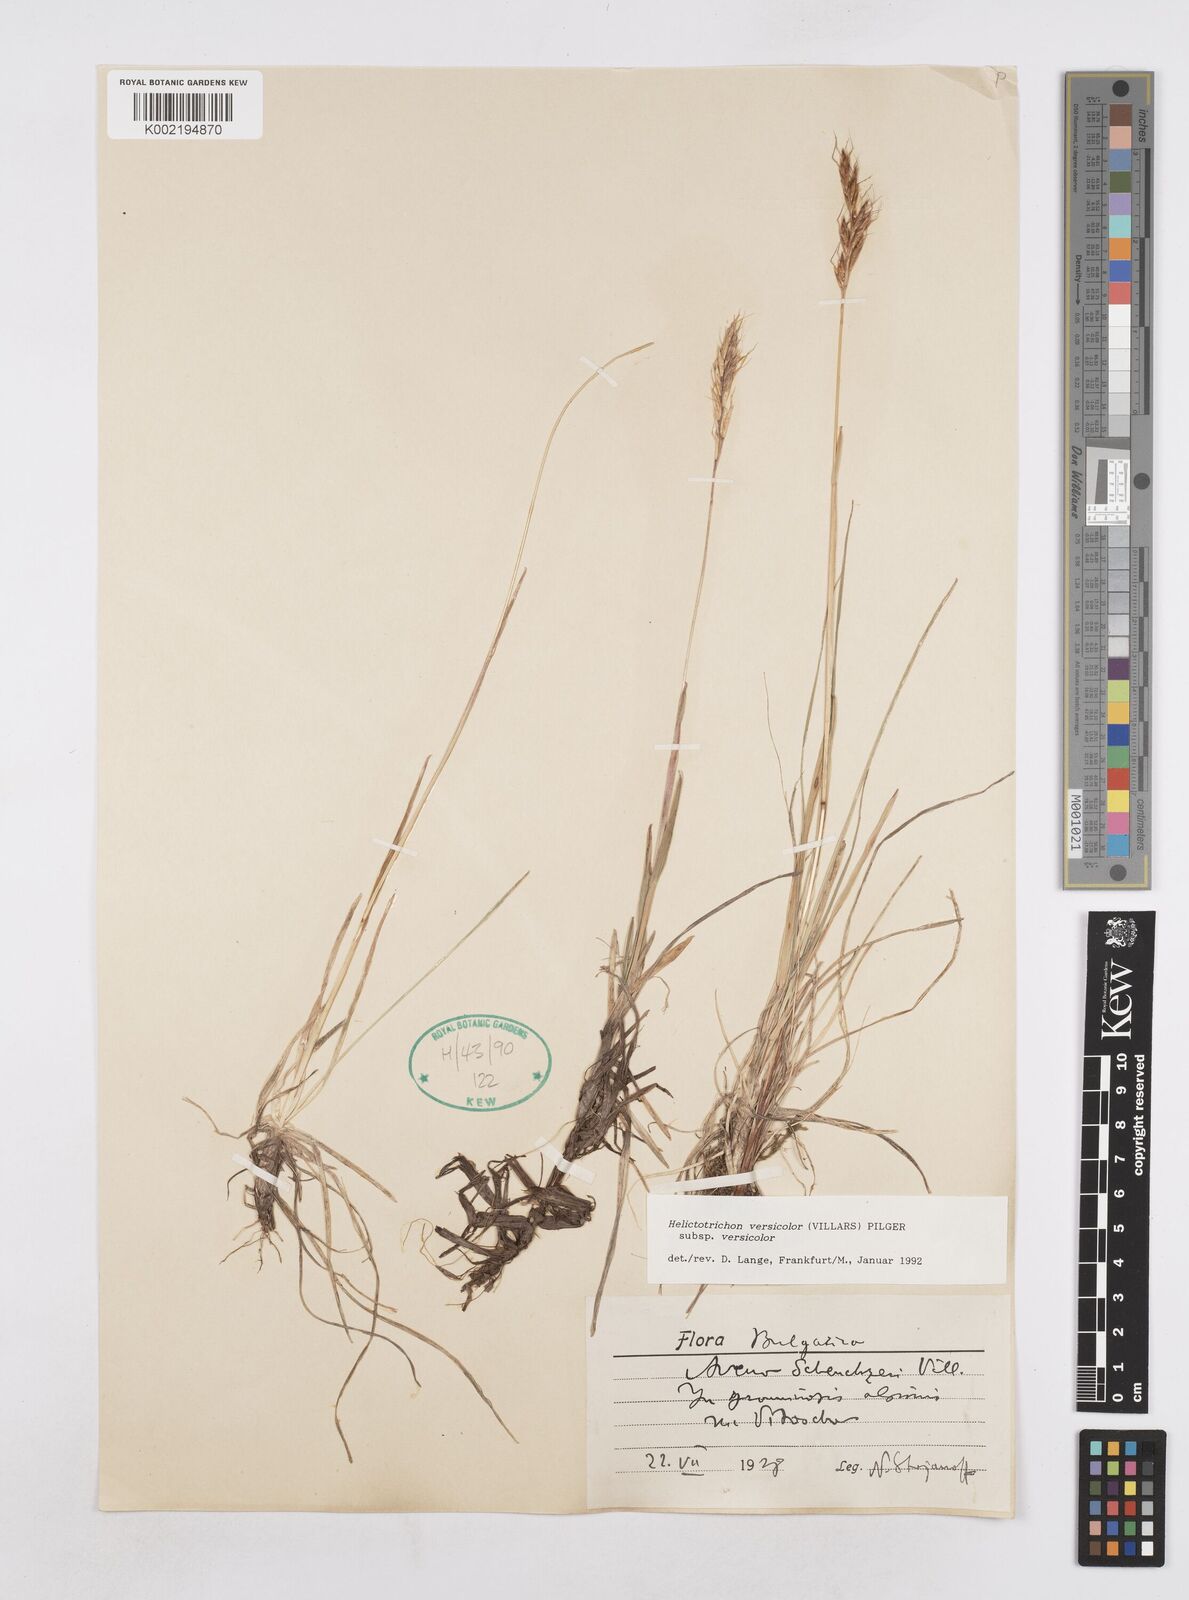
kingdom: Plantae
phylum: Tracheophyta
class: Liliopsida
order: Poales
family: Poaceae
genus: Helictochloa
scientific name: Helictochloa versicolor
